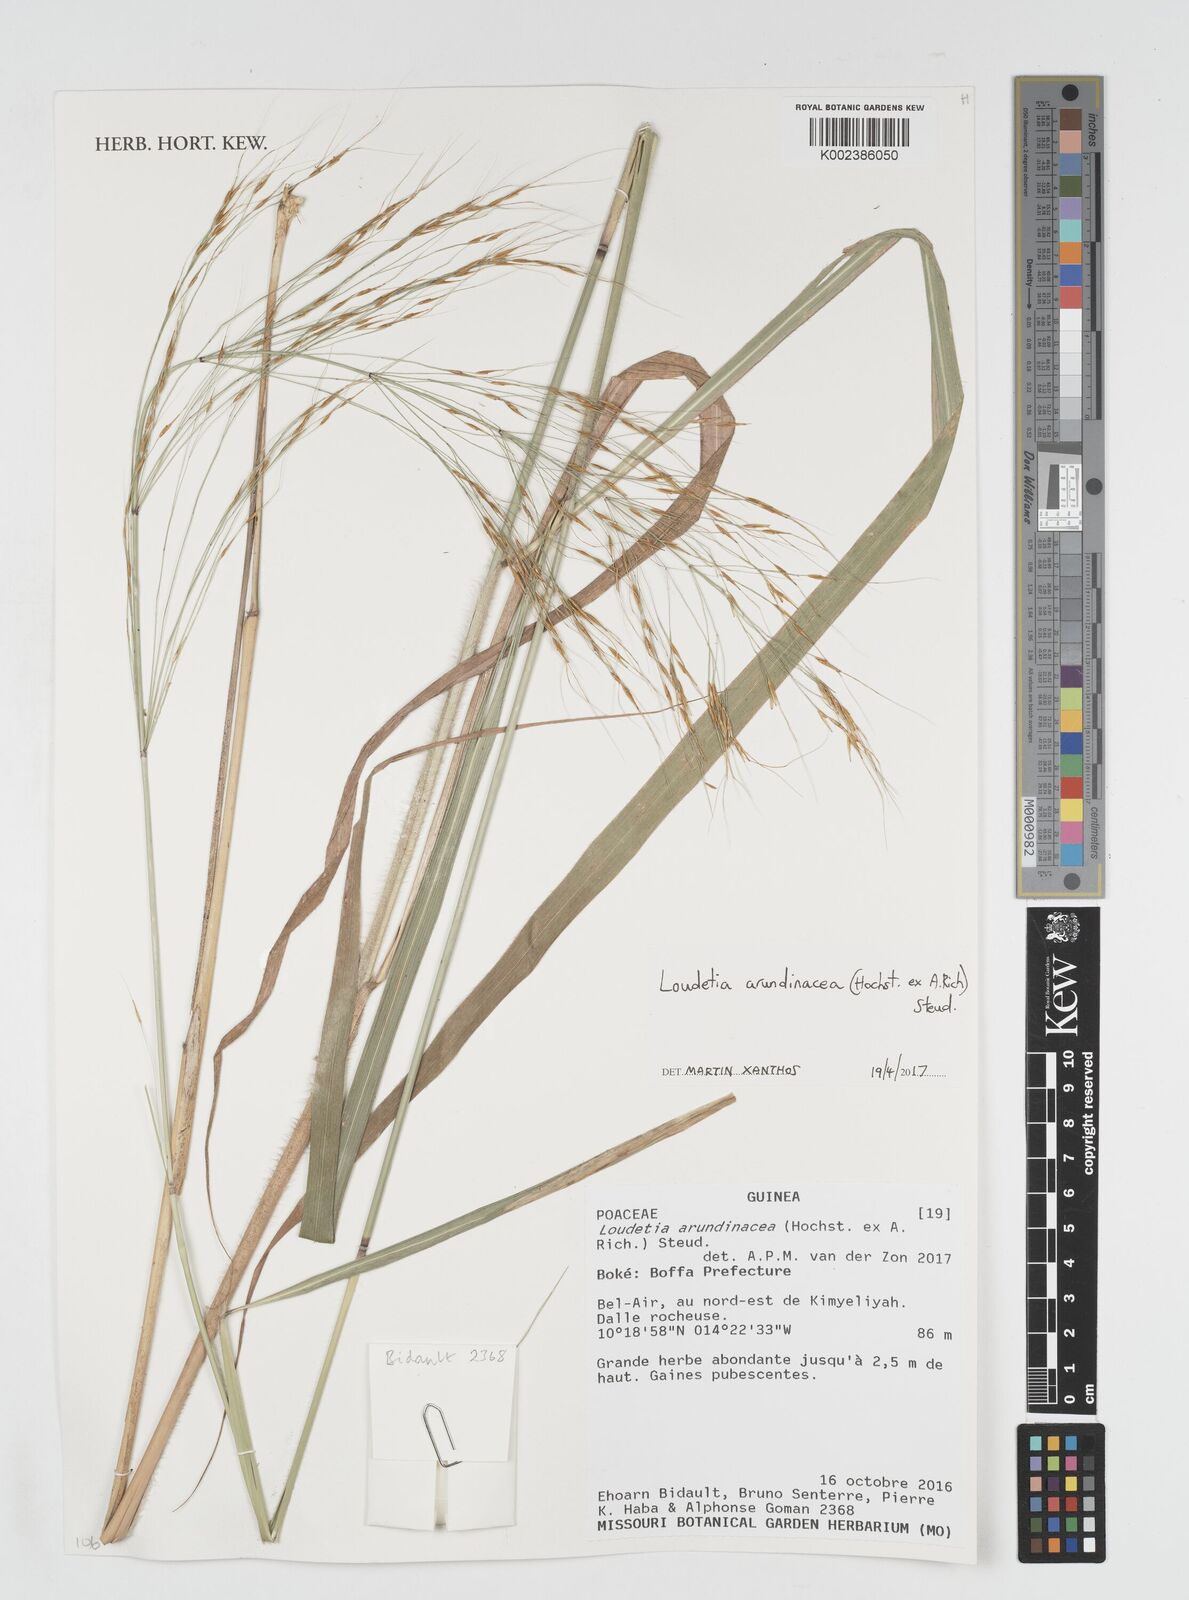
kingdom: Plantae
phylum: Tracheophyta
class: Liliopsida
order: Poales
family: Poaceae
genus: Loudetia
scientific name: Loudetia arundinacea
